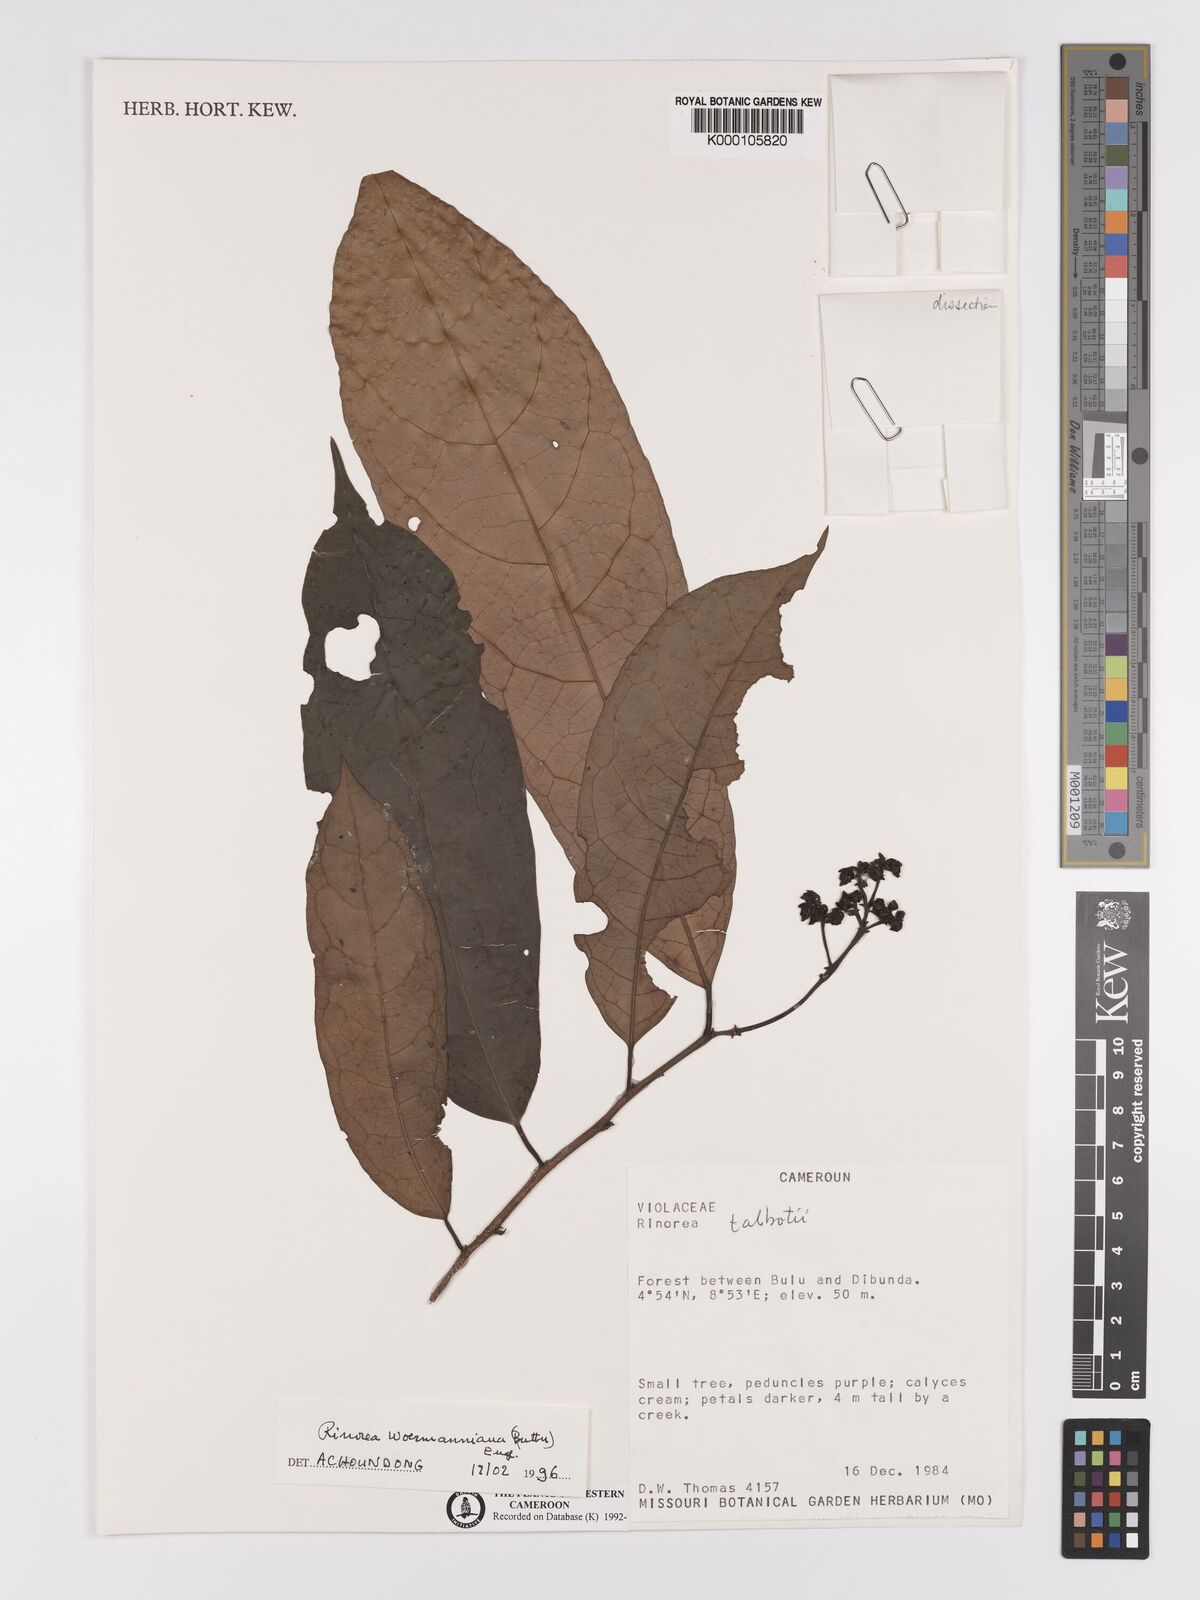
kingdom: Plantae
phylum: Tracheophyta
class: Magnoliopsida
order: Malpighiales
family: Violaceae
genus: Rinorea
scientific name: Rinorea woermanniana
